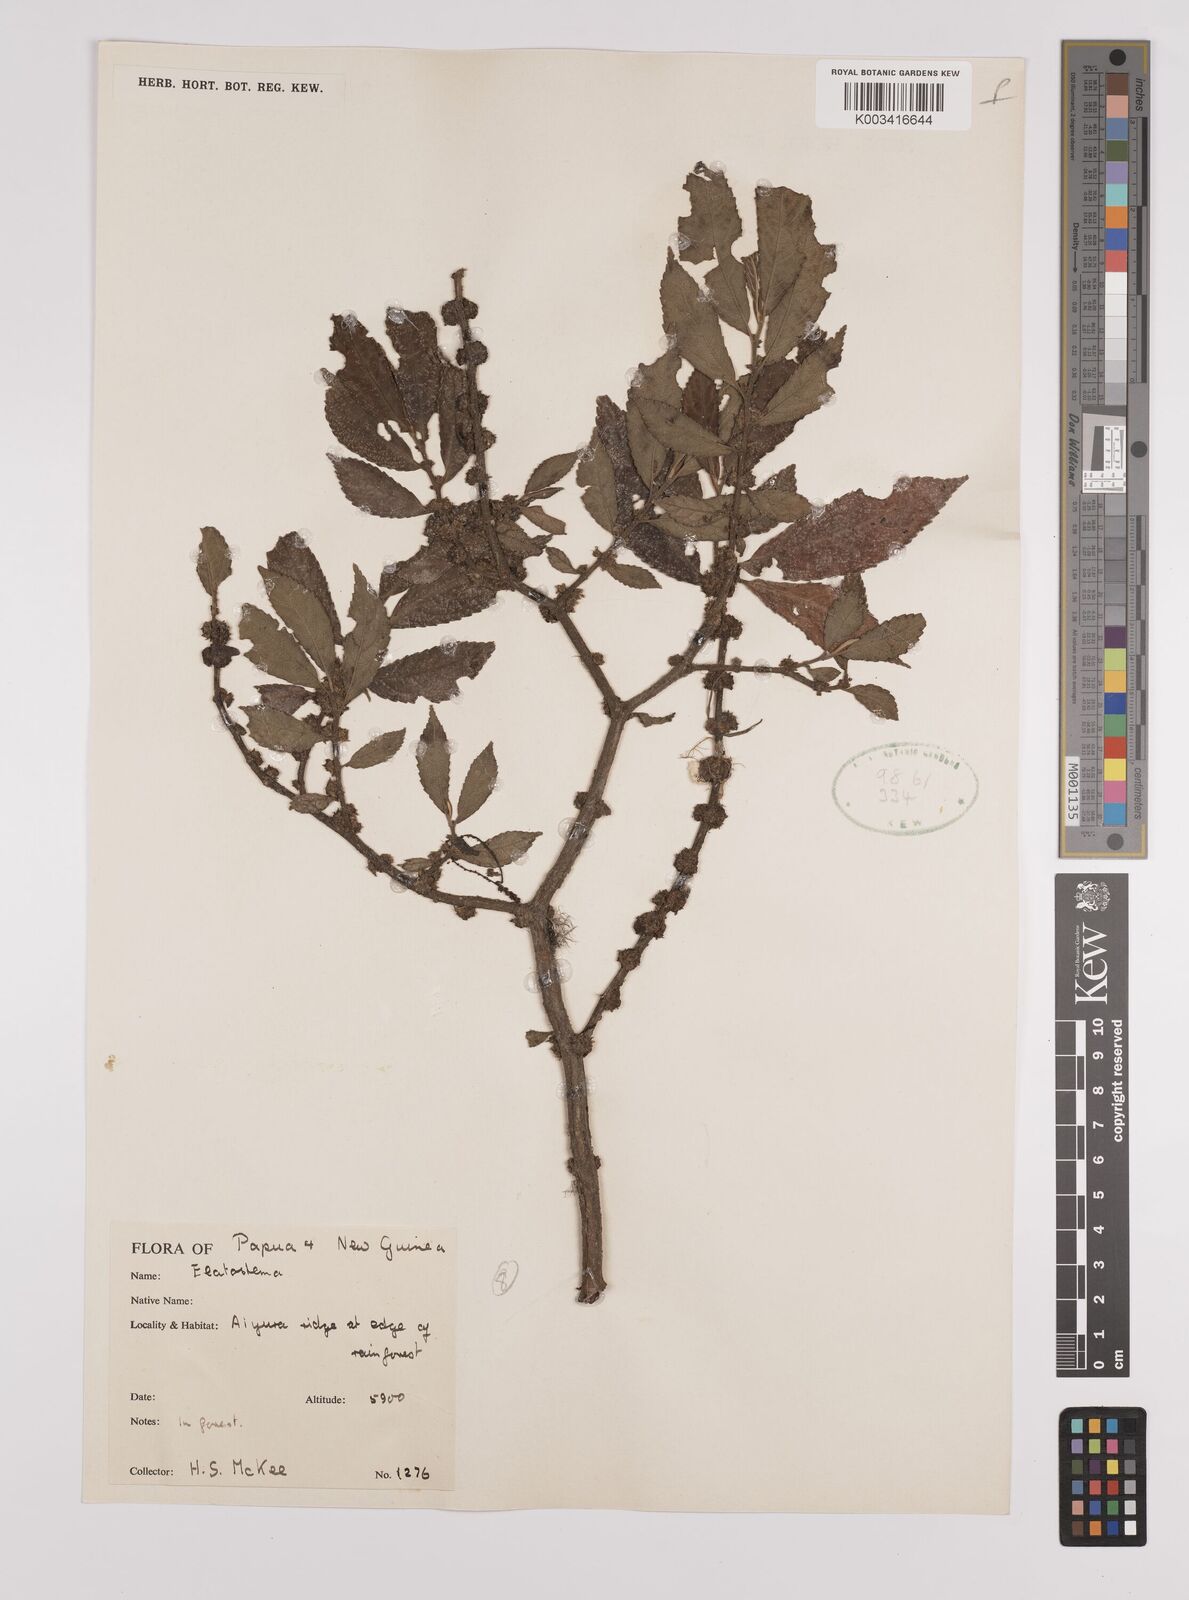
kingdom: Plantae
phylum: Tracheophyta
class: Magnoliopsida
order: Rosales
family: Urticaceae
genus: Elatostema
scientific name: Elatostema
